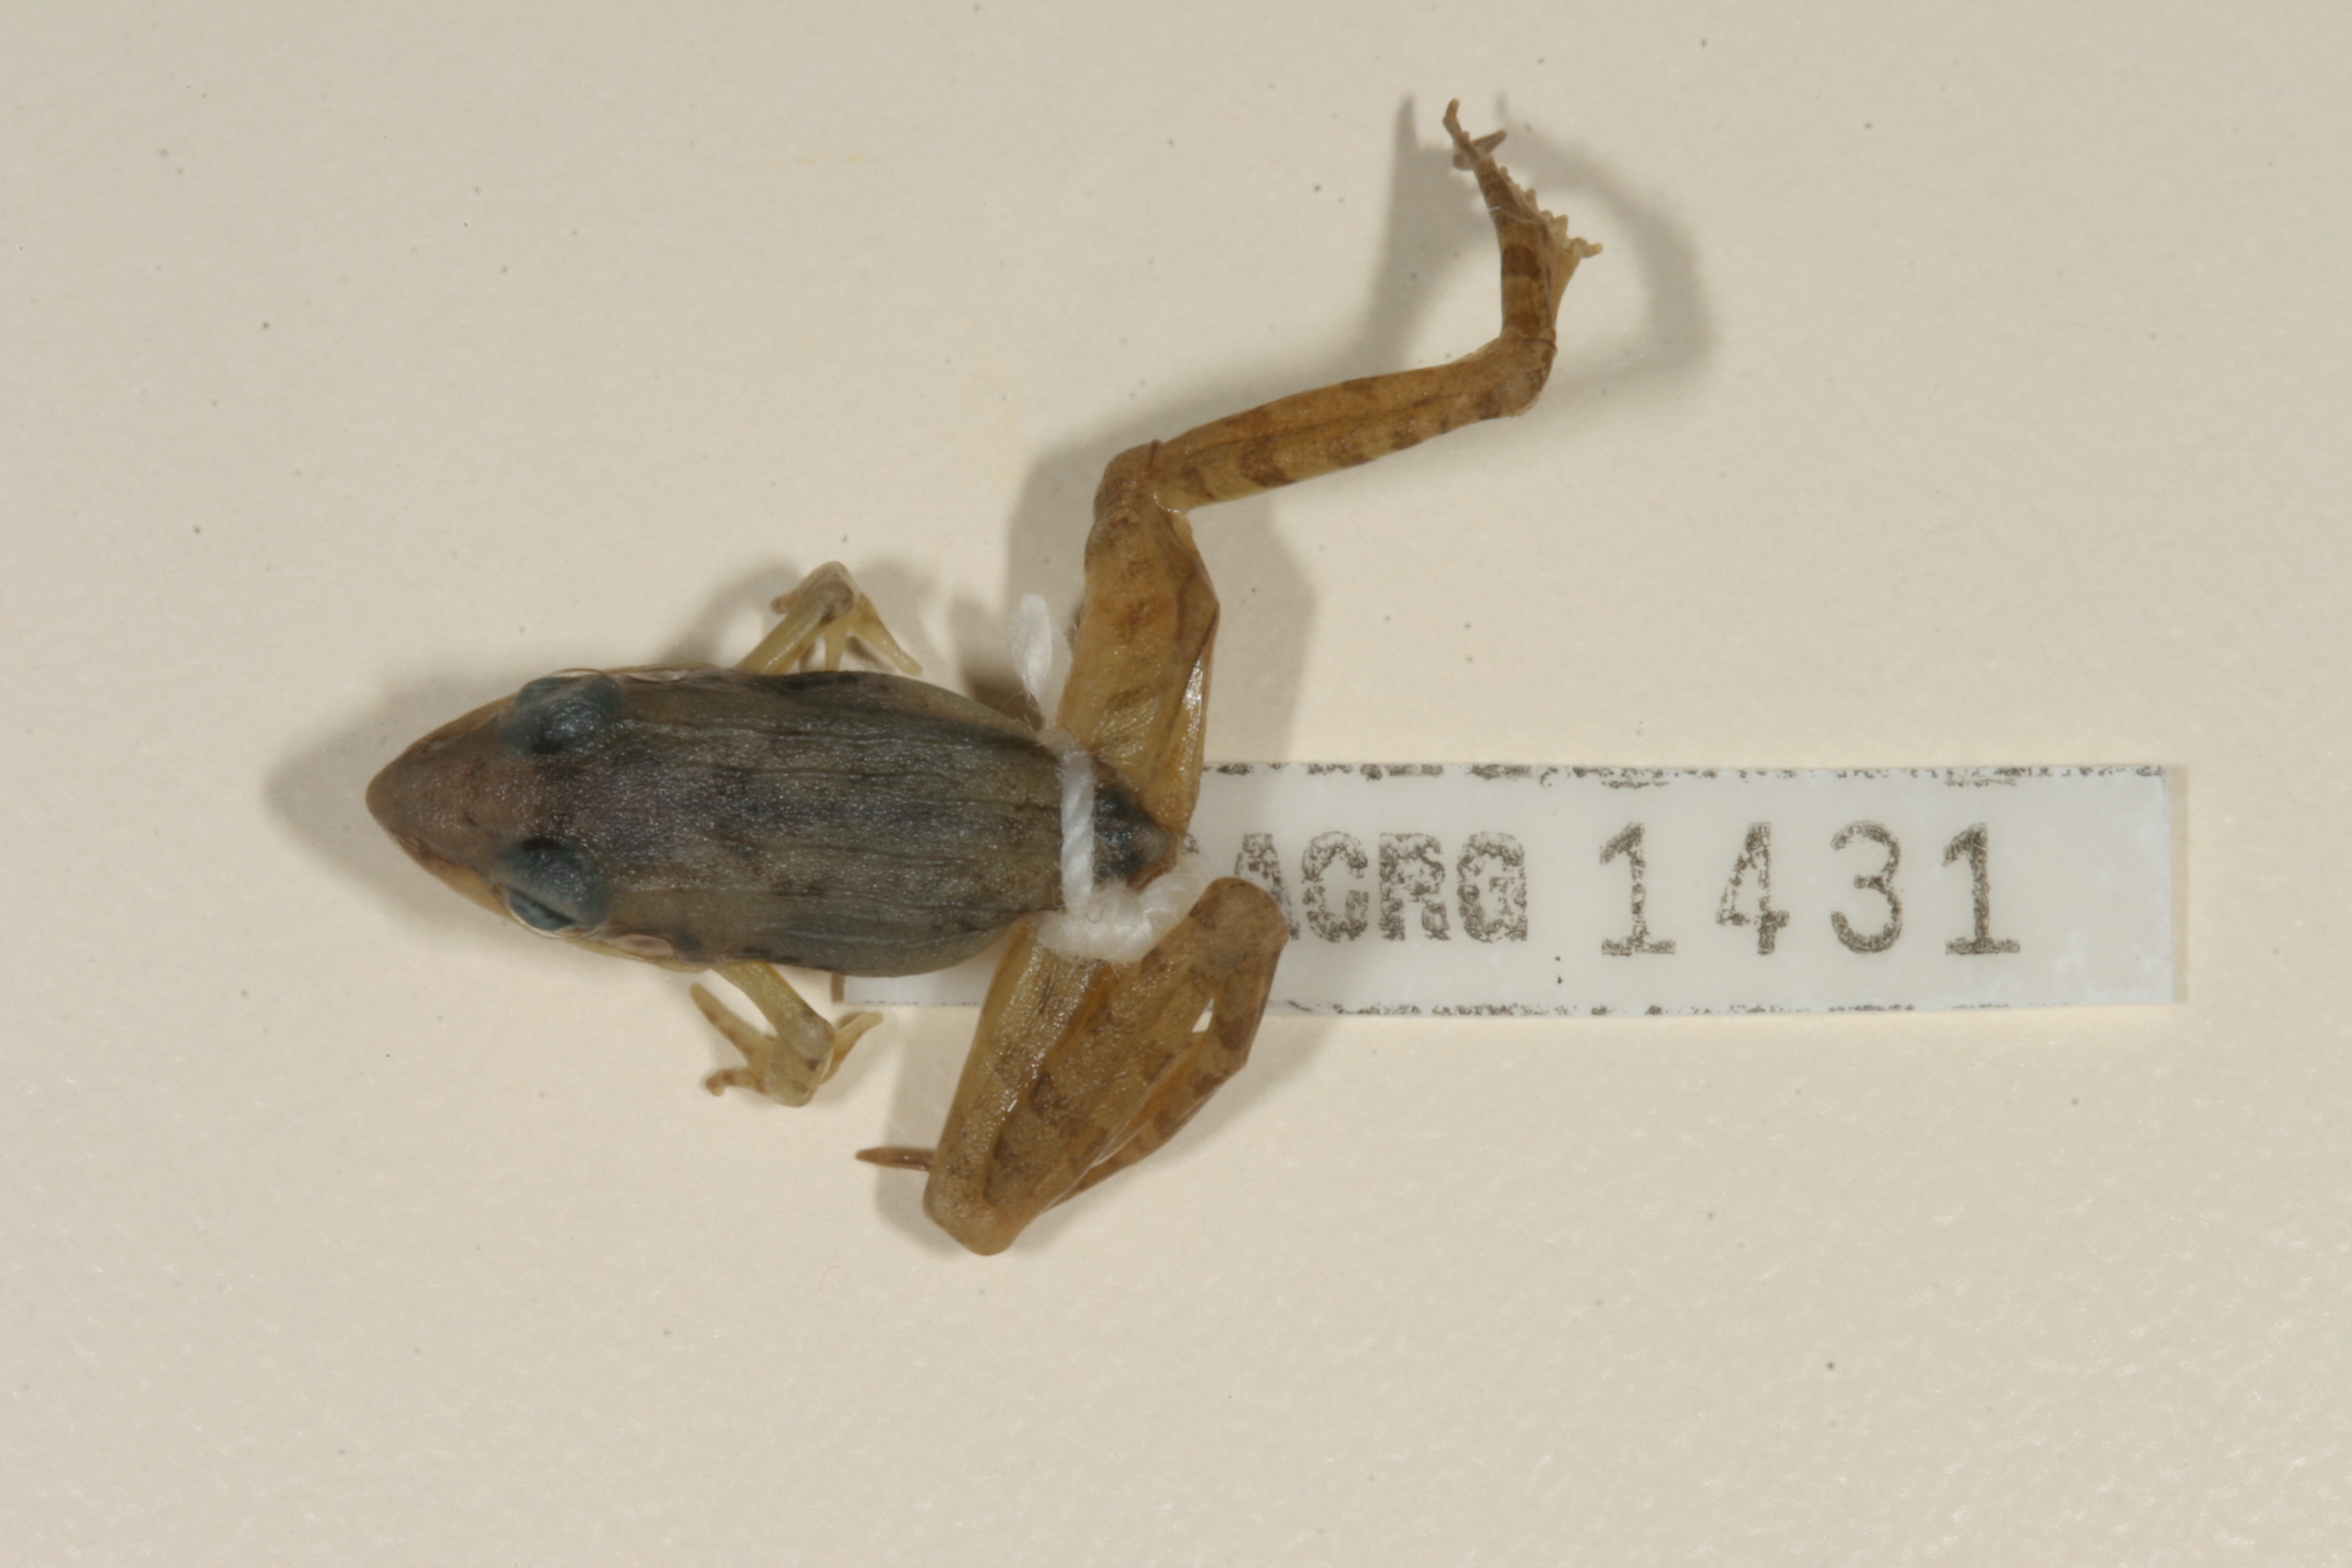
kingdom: Animalia
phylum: Chordata
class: Amphibia
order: Anura
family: Ptychadenidae
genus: Ptychadena
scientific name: Ptychadena anchietae
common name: Anchieta's ridged frog
